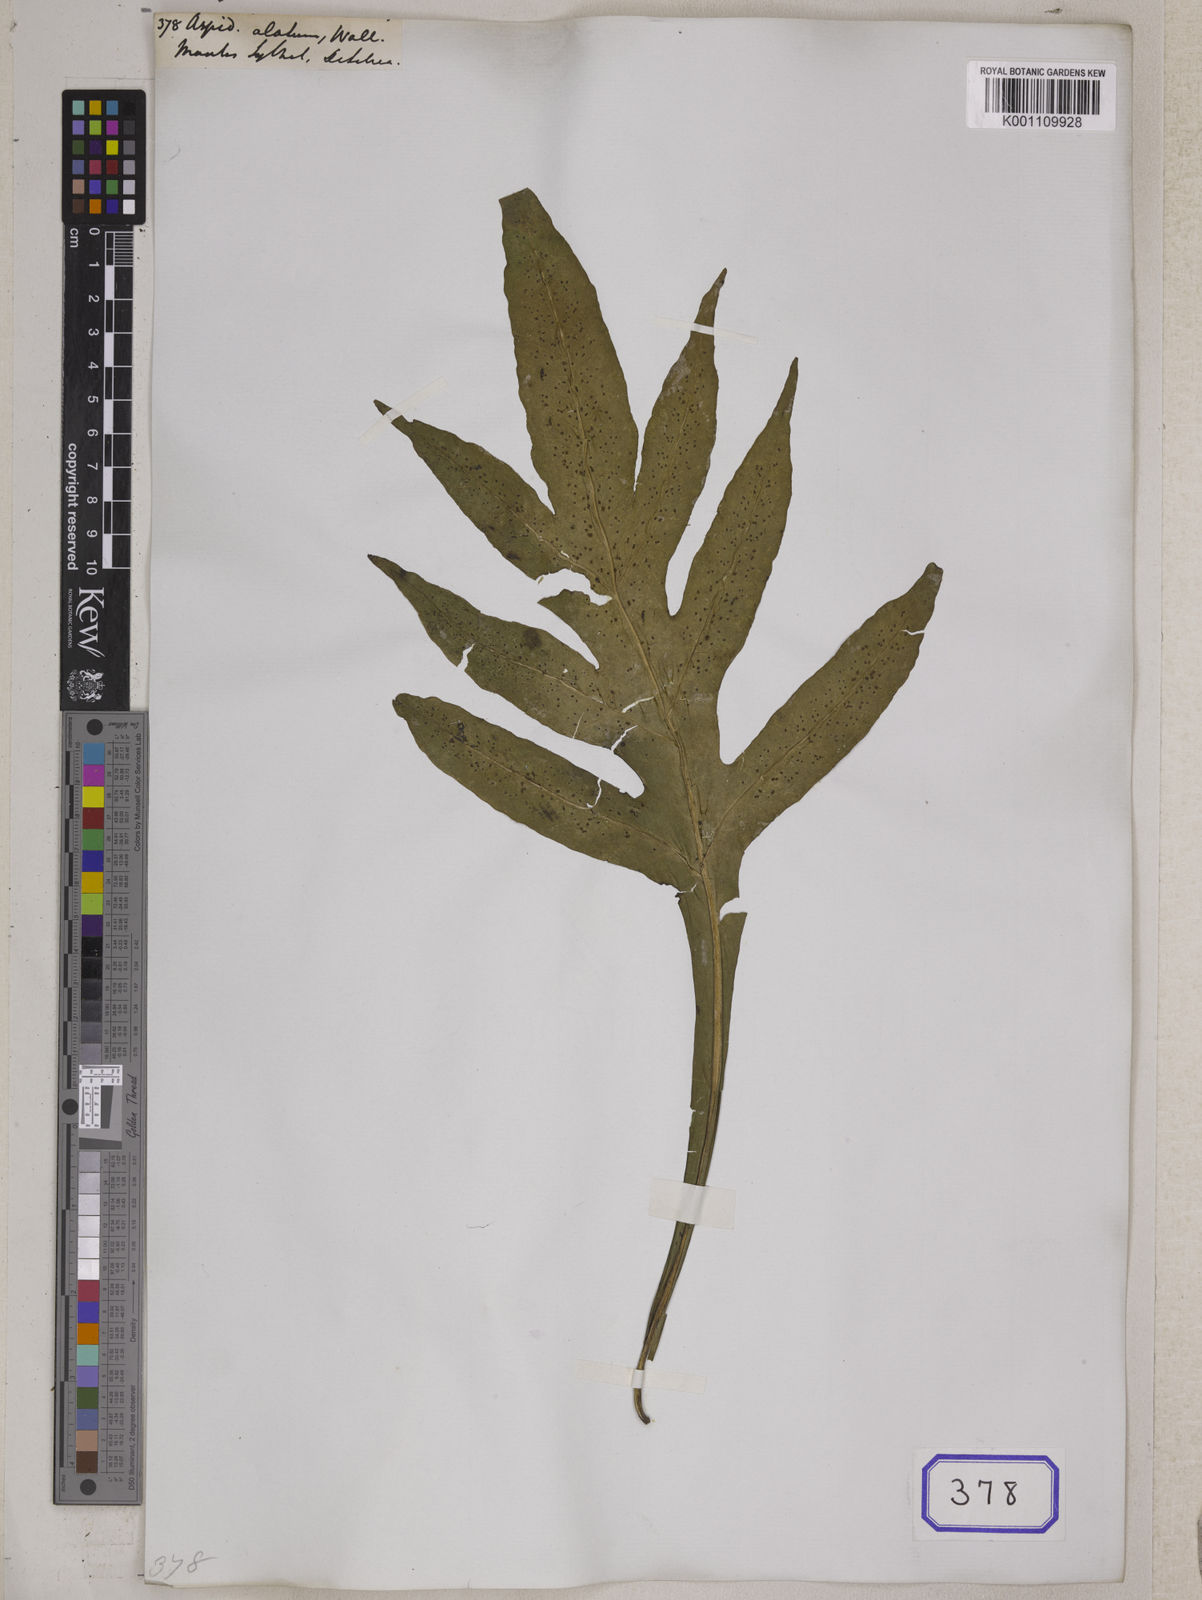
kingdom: Plantae
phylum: Tracheophyta
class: Polypodiopsida
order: Polypodiales
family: Tectariaceae
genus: Tectaria
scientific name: Tectaria vasta
